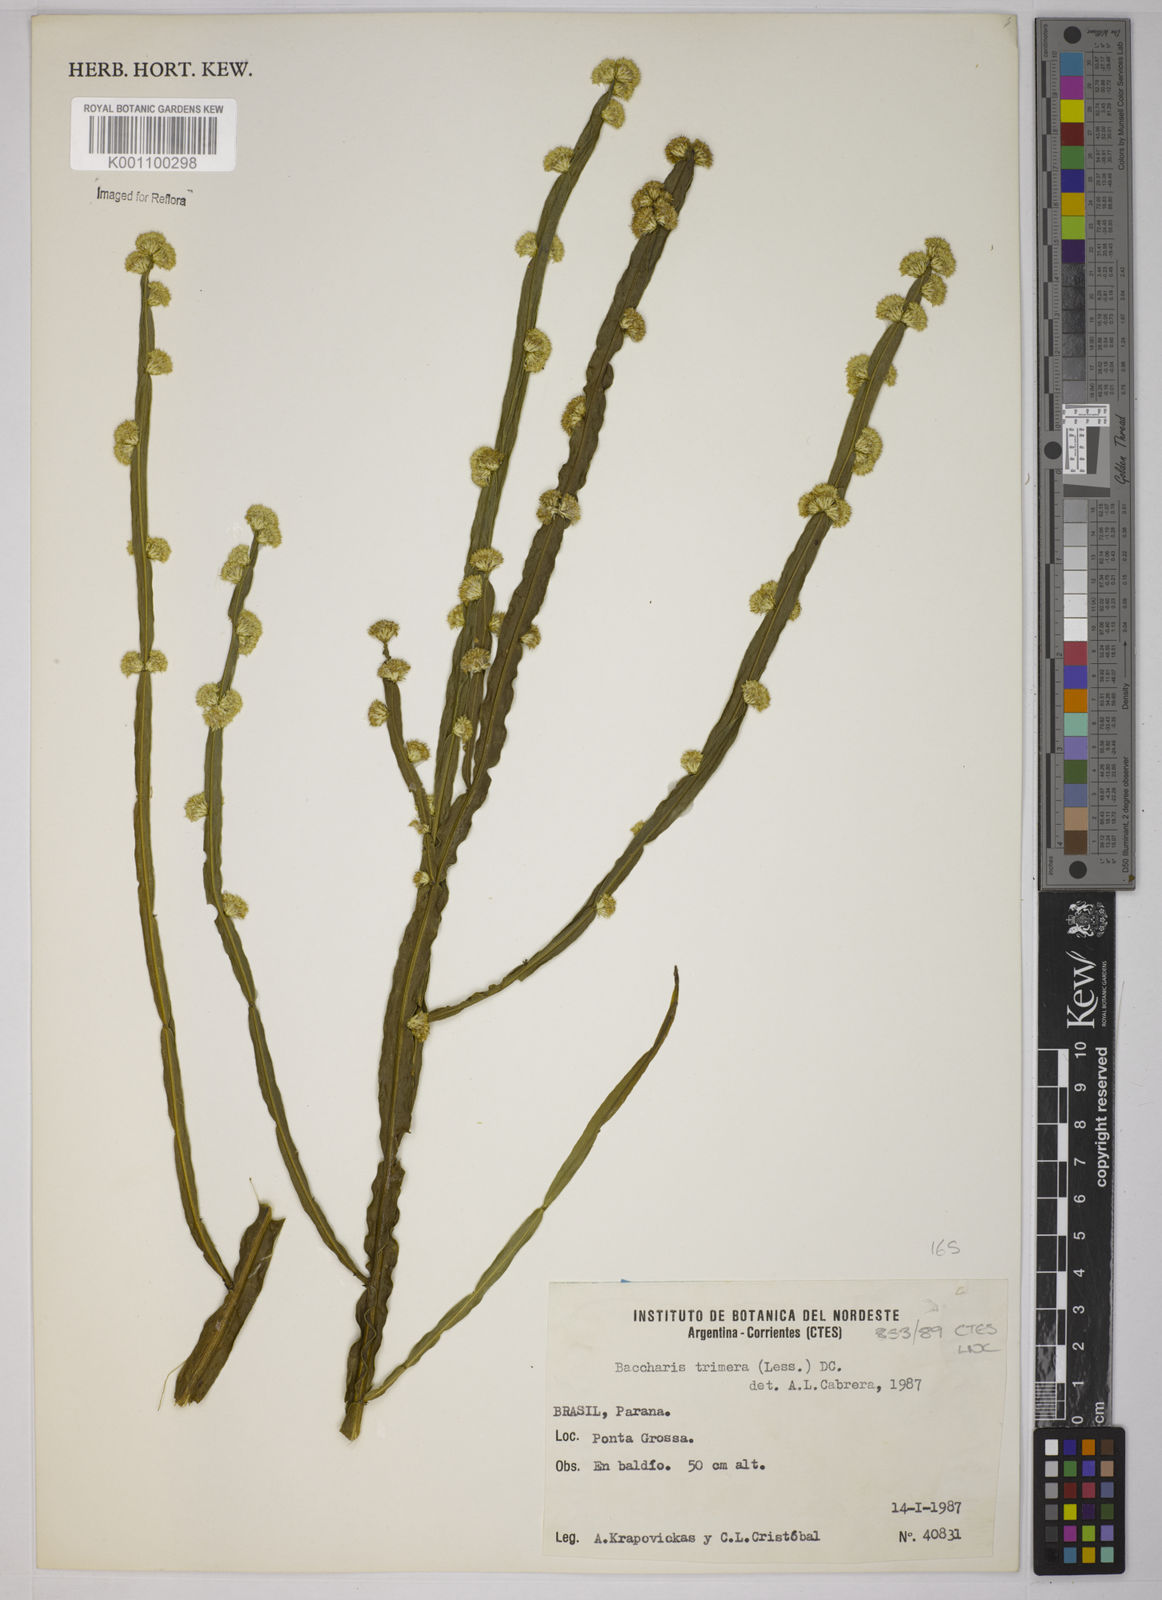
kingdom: Plantae
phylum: Tracheophyta
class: Magnoliopsida
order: Asterales
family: Asteraceae
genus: Baccharis
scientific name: Baccharis trimera
